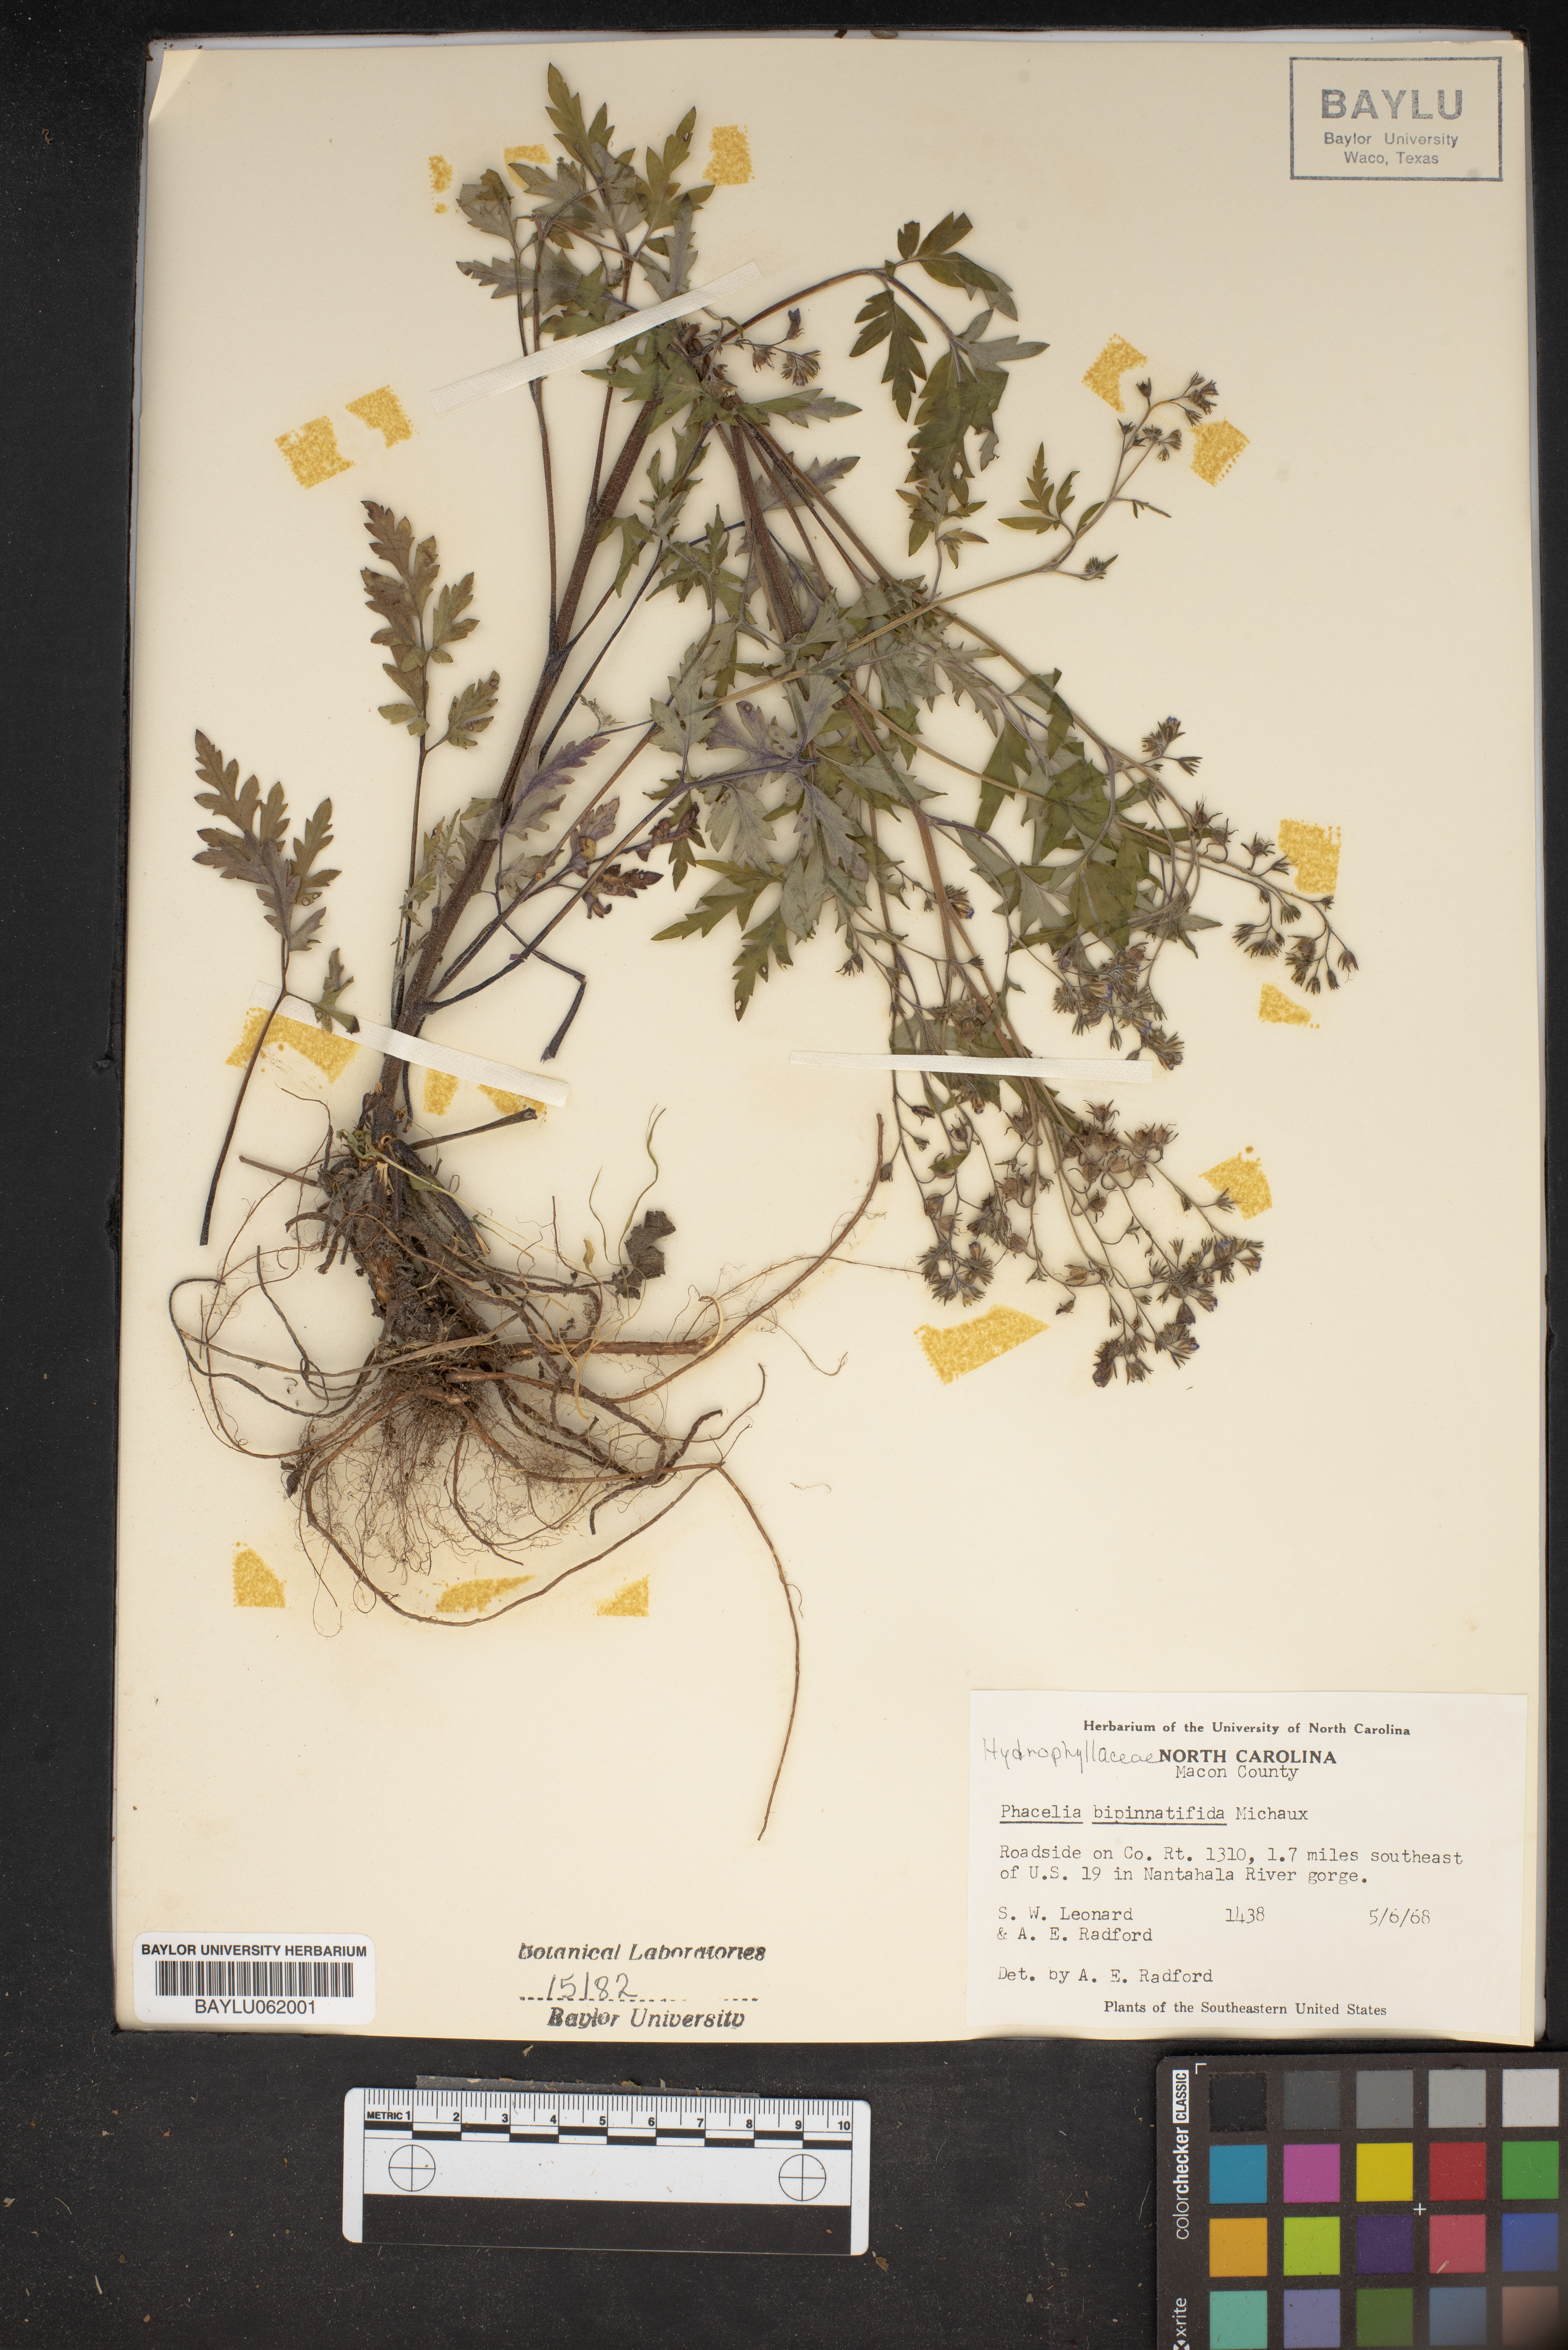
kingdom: Plantae
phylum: Tracheophyta
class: Magnoliopsida
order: Boraginales
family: Hydrophyllaceae
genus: Phacelia
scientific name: Phacelia bipinnatifida
